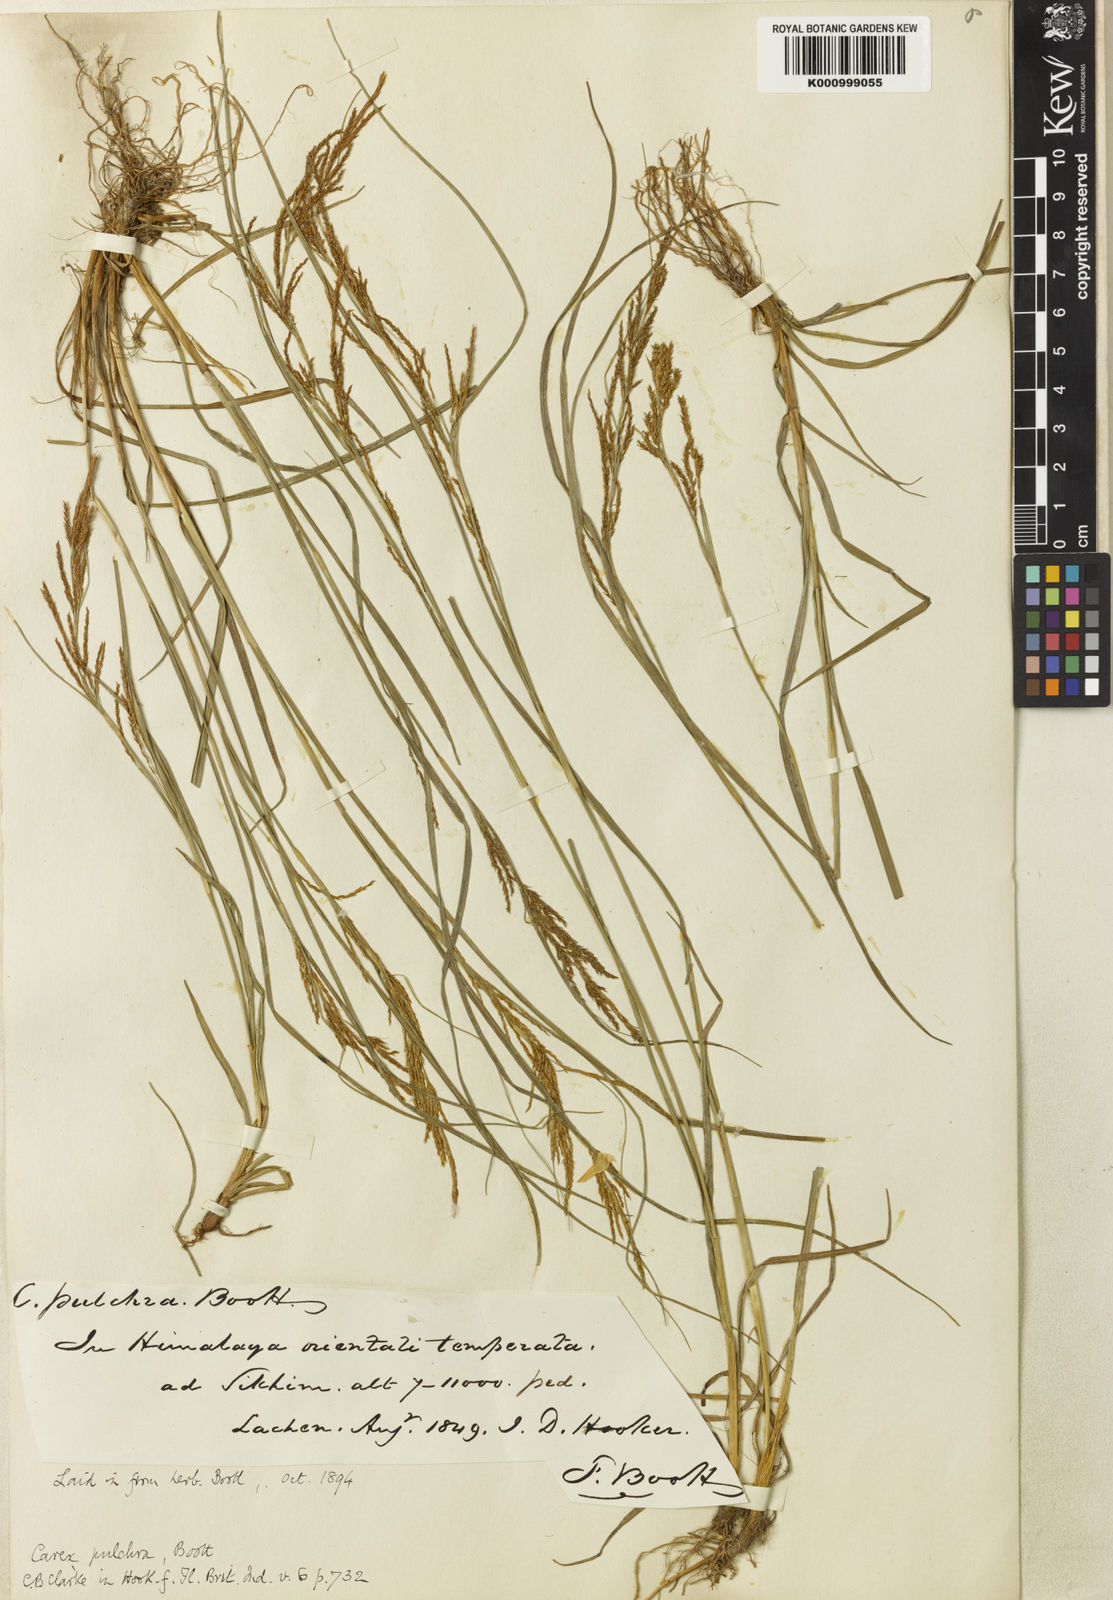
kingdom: Plantae
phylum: Tracheophyta
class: Liliopsida
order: Poales
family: Cyperaceae
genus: Carex
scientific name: Carex pulchra
